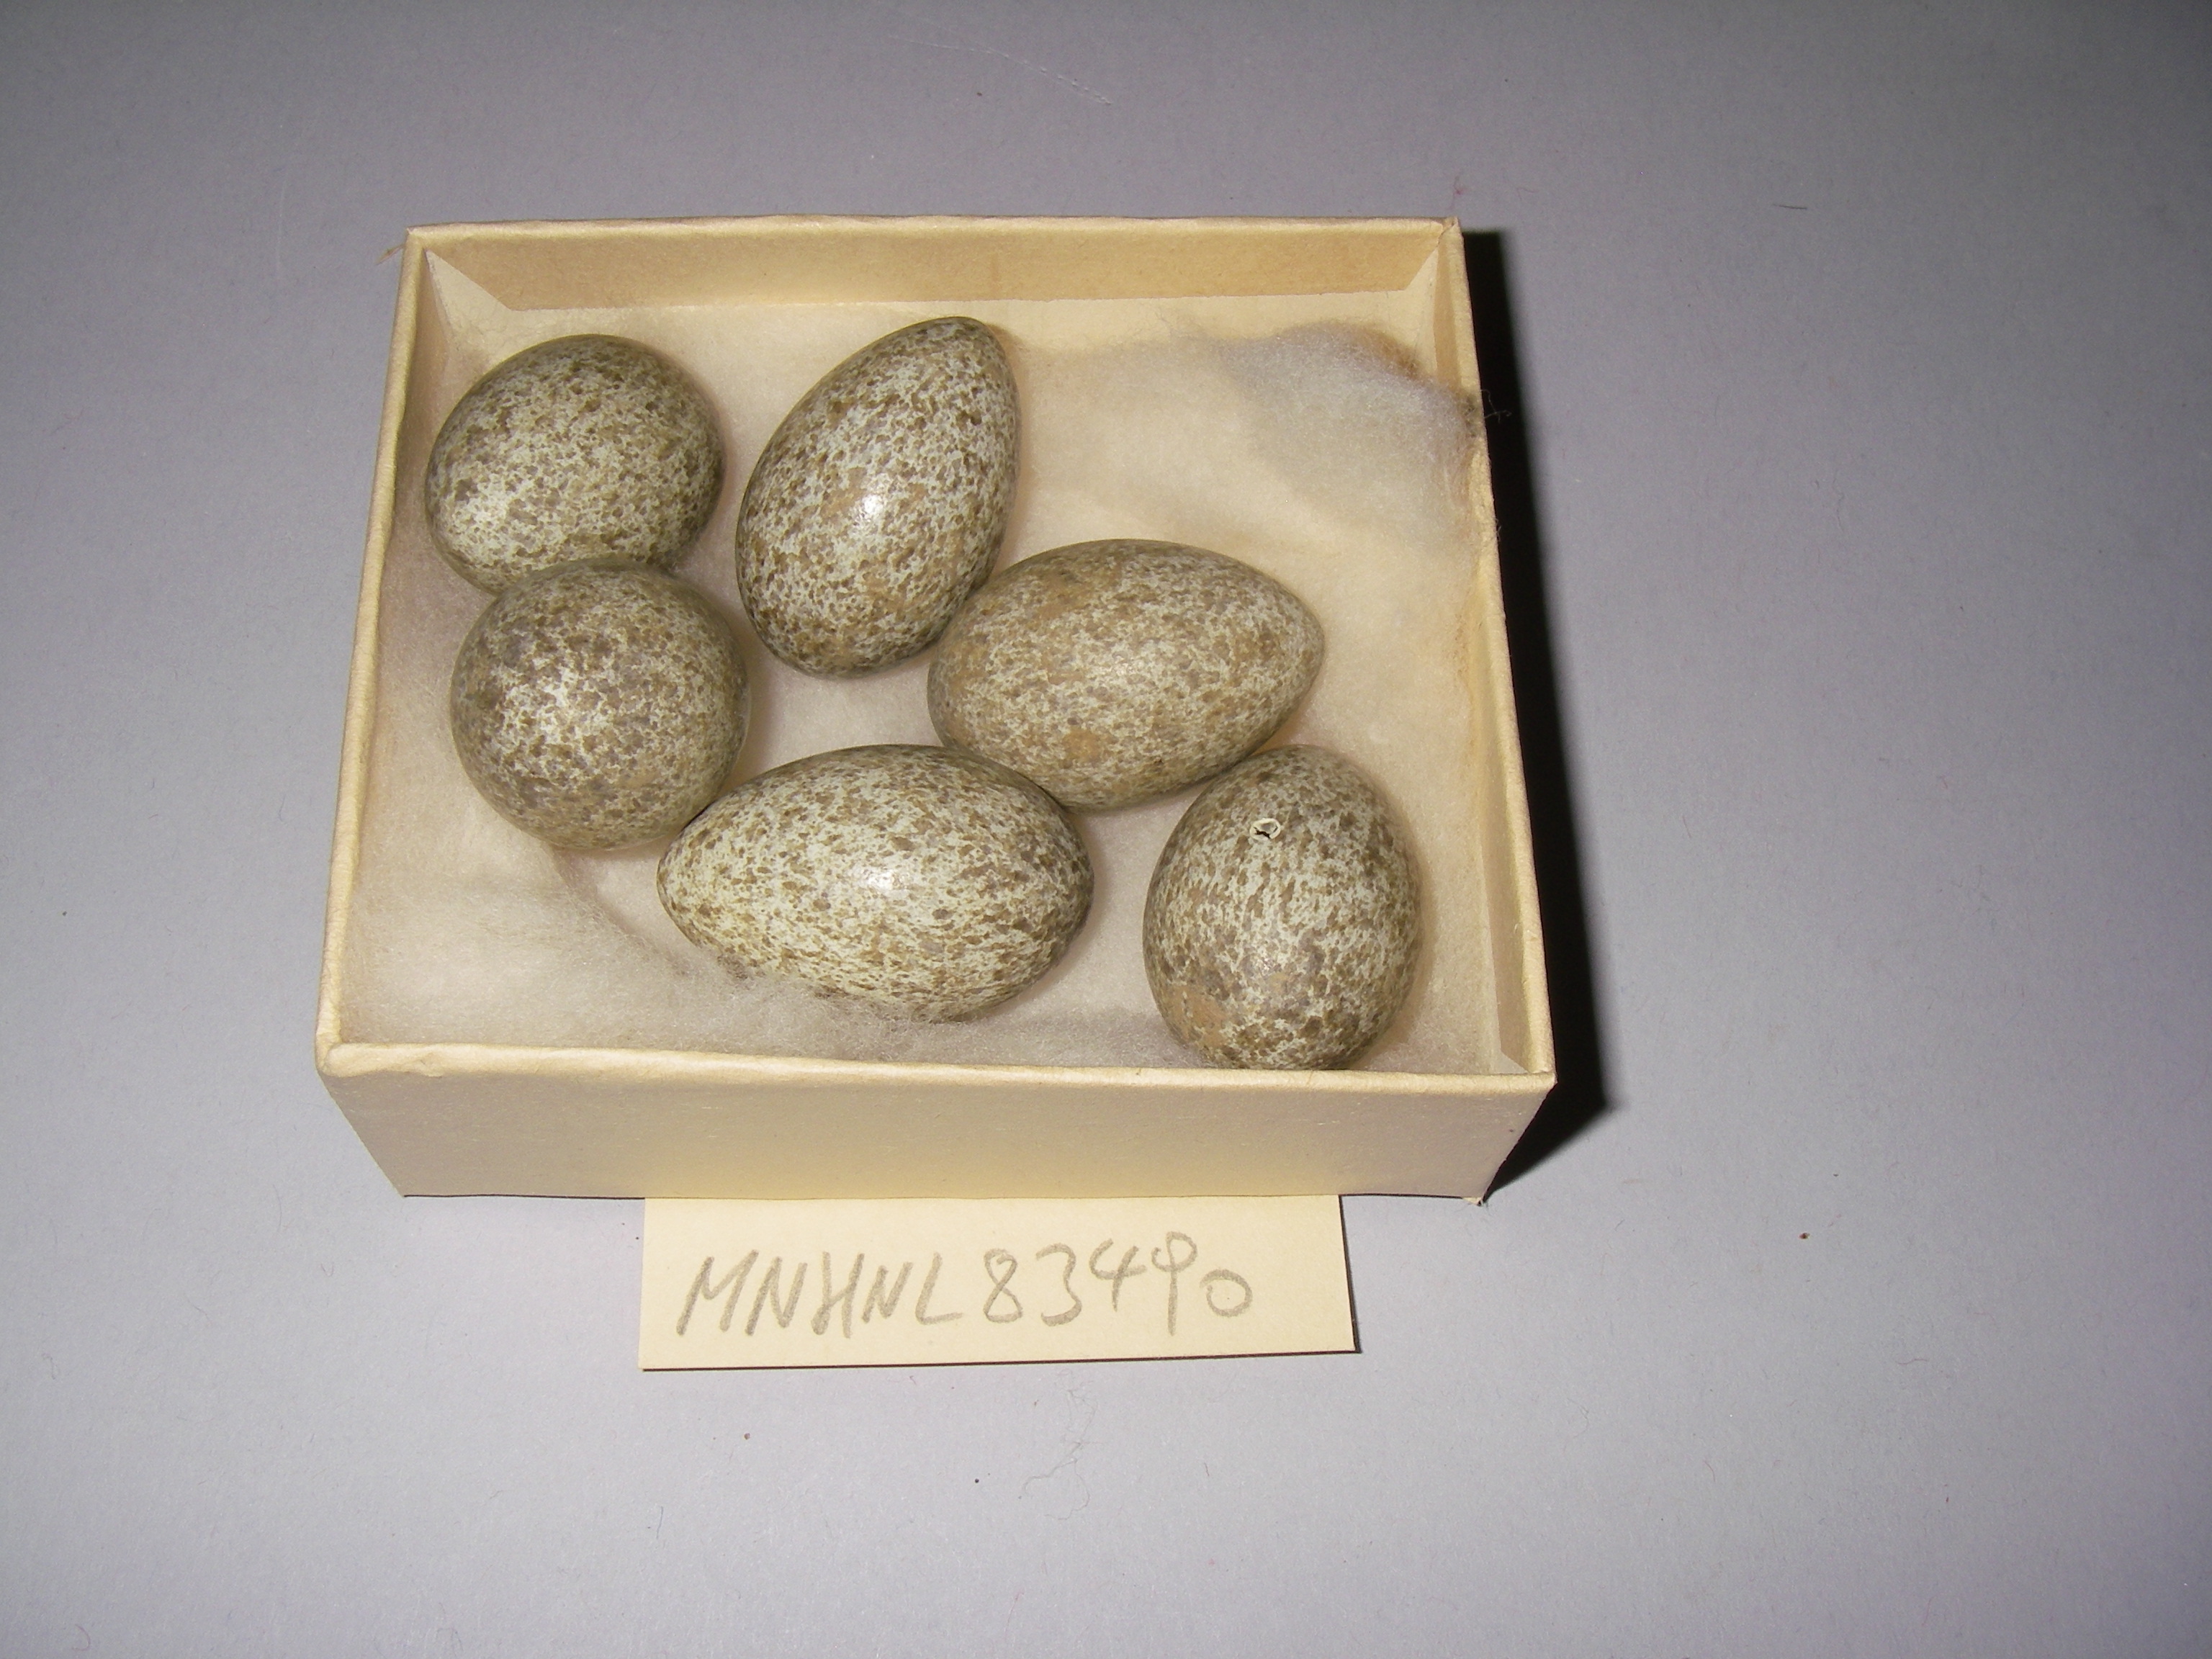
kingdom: Animalia
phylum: Chordata
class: Aves
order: Passeriformes
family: Corvidae
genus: Pica
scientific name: Pica pica
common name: Eurasian magpie
